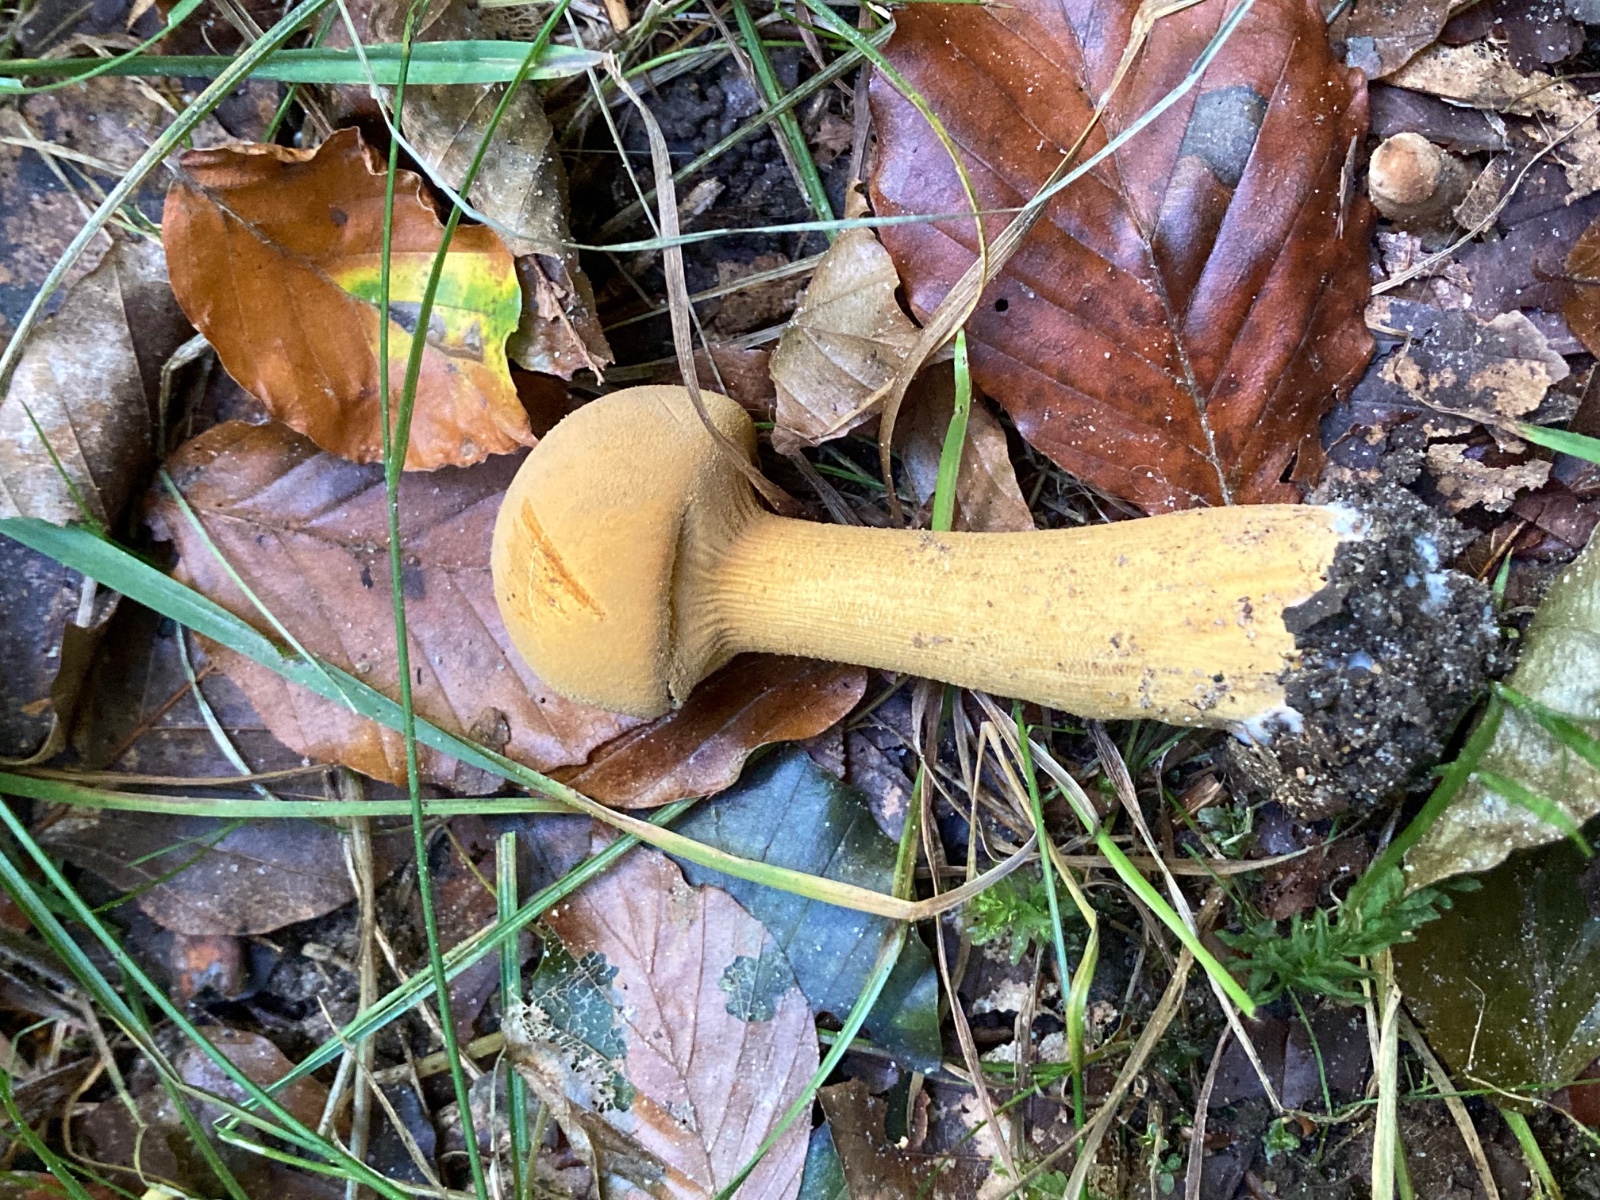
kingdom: Fungi
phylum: Basidiomycota
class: Agaricomycetes
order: Agaricales
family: Tricholomataceae
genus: Phaeolepiota
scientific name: Phaeolepiota aurea
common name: gyldenhat
